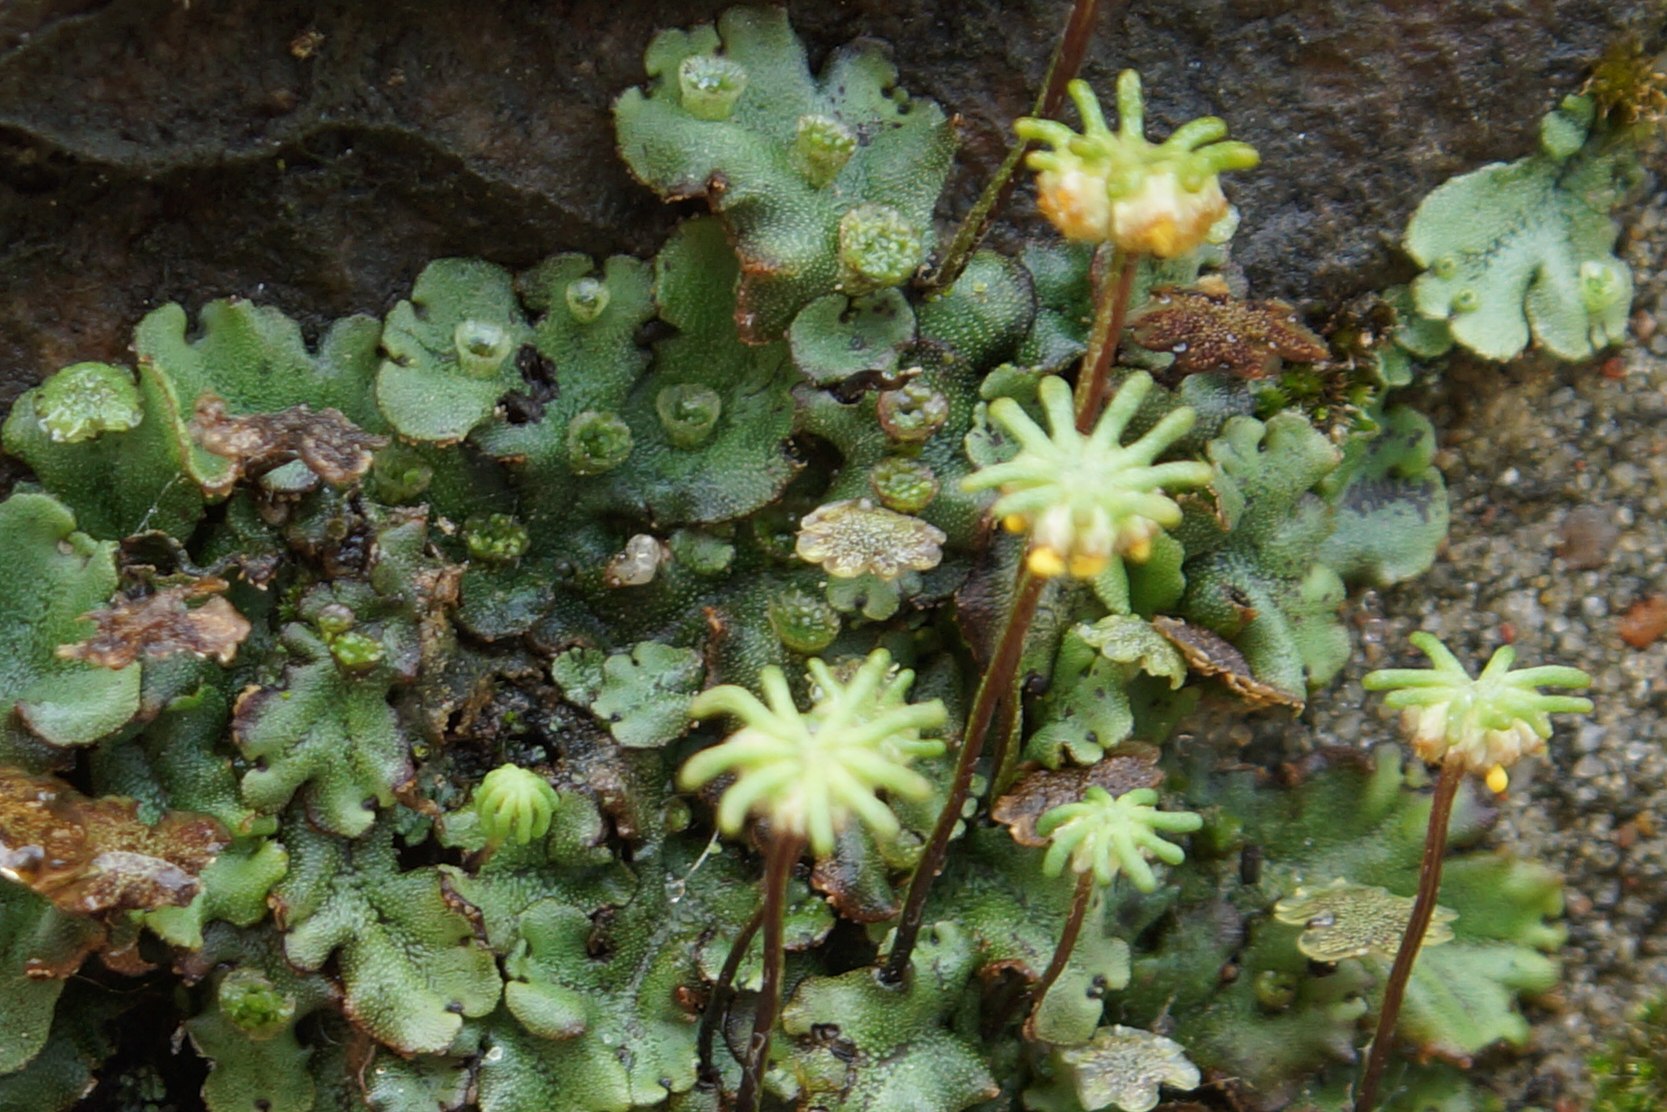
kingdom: Plantae
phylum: Marchantiophyta
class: Marchantiopsida
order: Marchantiales
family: Marchantiaceae
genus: Marchantia
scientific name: Marchantia polymorpha
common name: Almindelig lungemos (underart)
